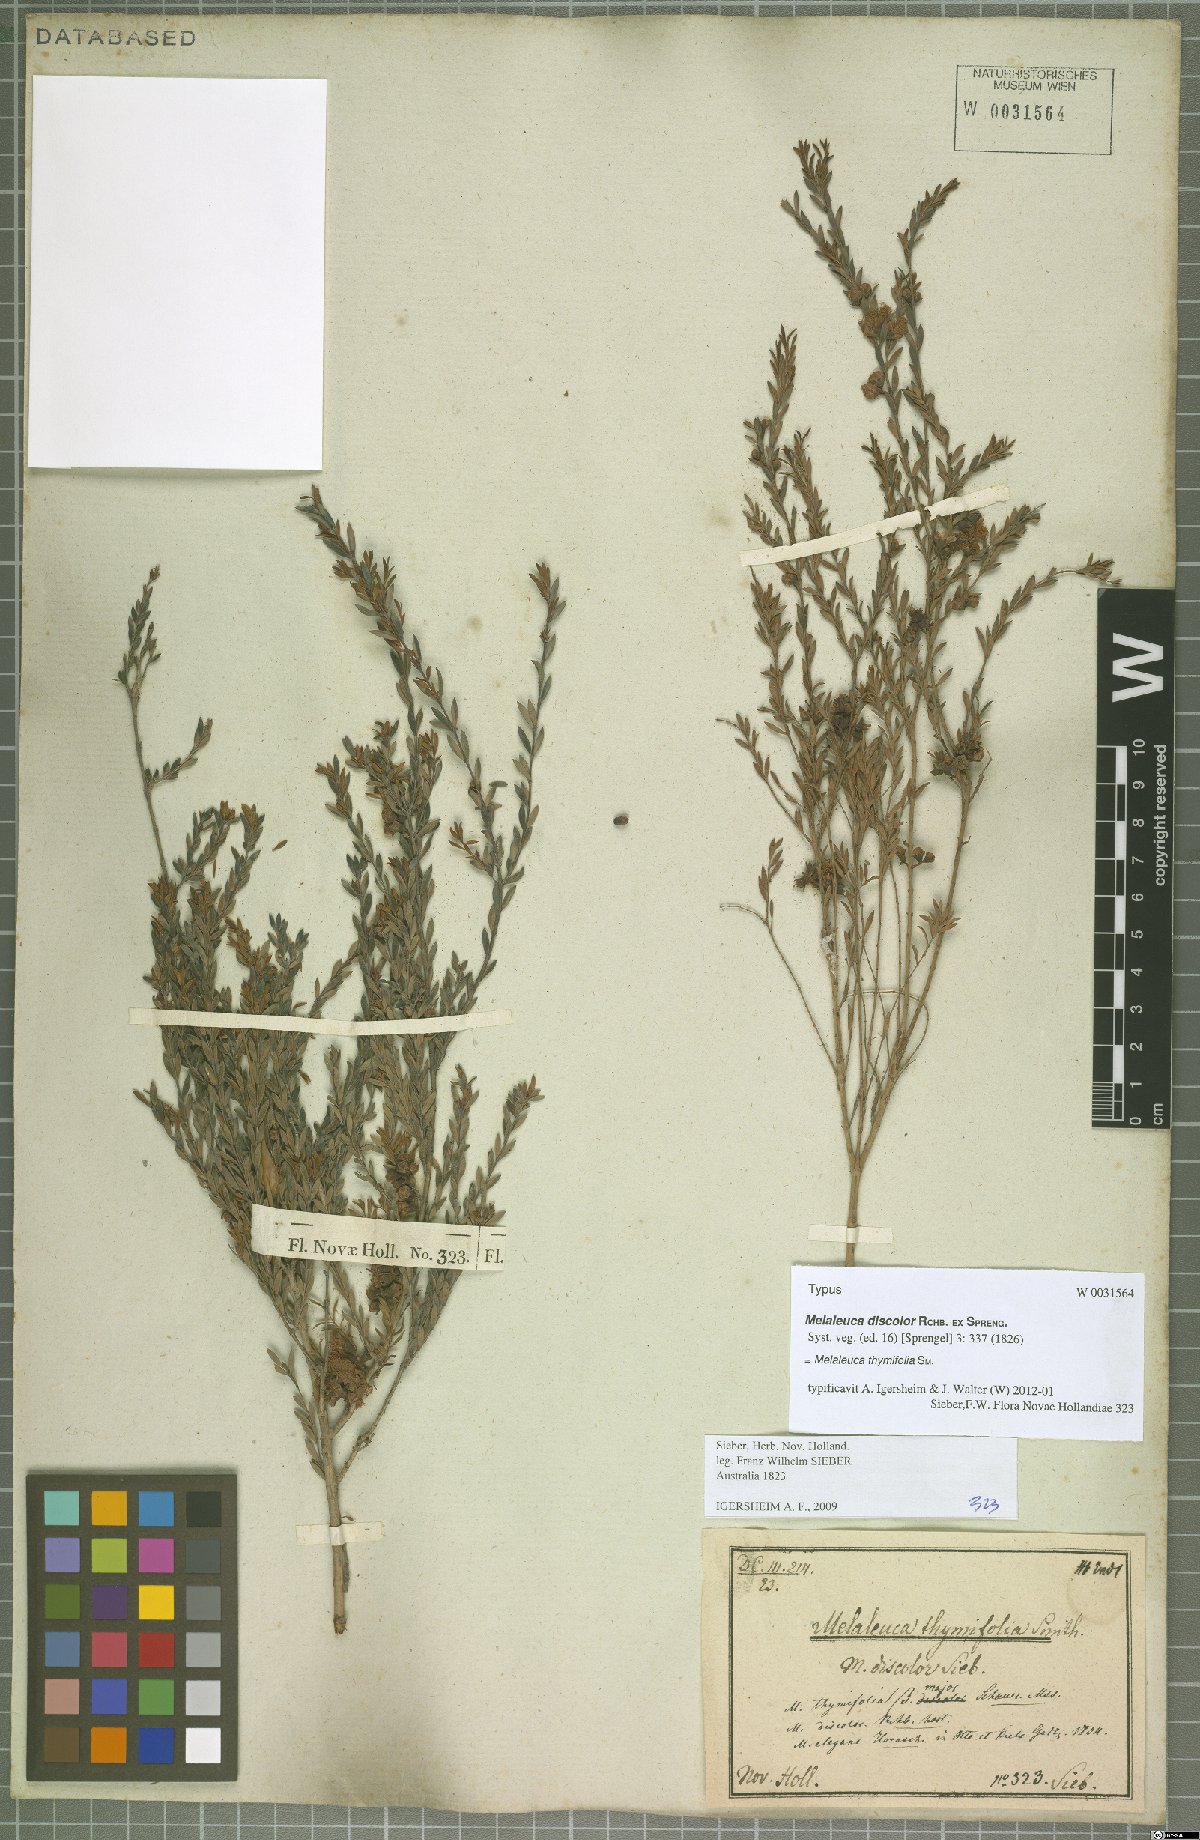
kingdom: Plantae
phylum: Tracheophyta
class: Magnoliopsida
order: Myrtales
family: Myrtaceae
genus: Melaleuca
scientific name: Melaleuca thymifolia
